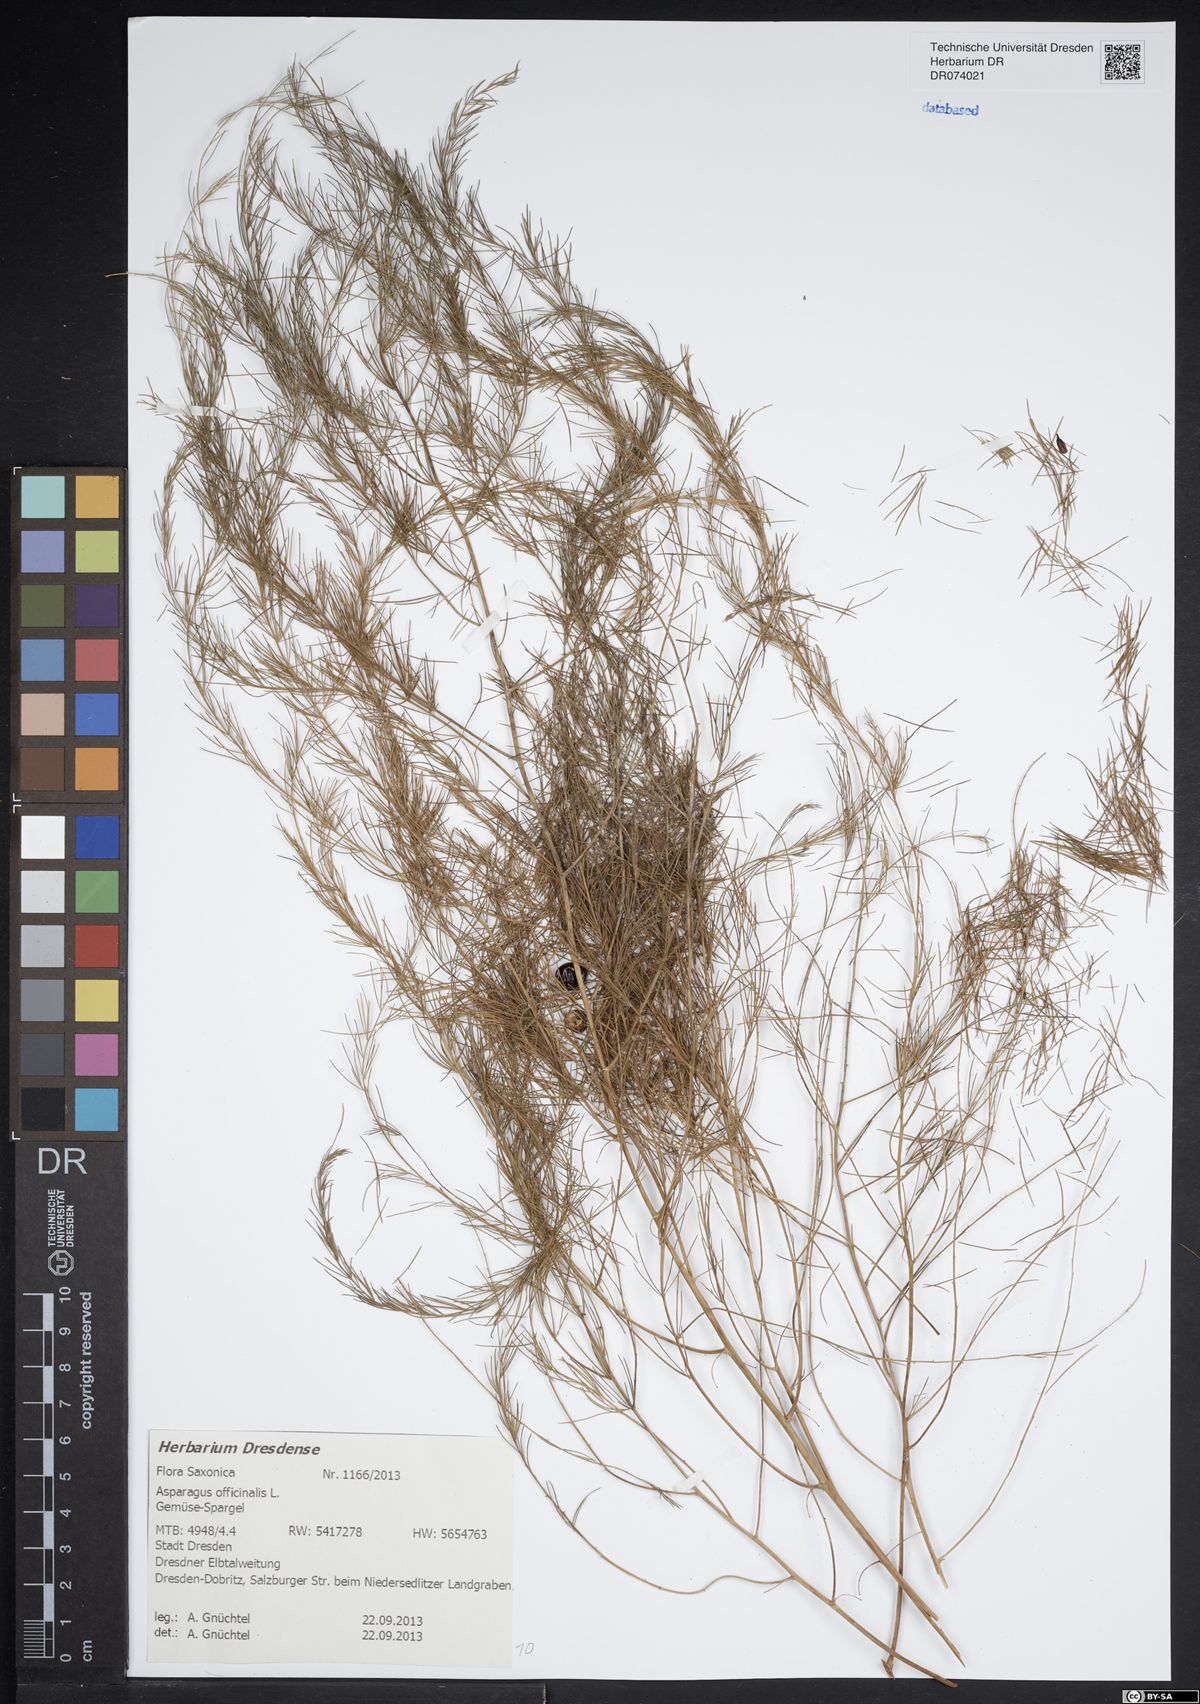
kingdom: Plantae
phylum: Tracheophyta
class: Liliopsida
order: Asparagales
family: Asparagaceae
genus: Asparagus
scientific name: Asparagus officinalis
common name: Garden asparagus
